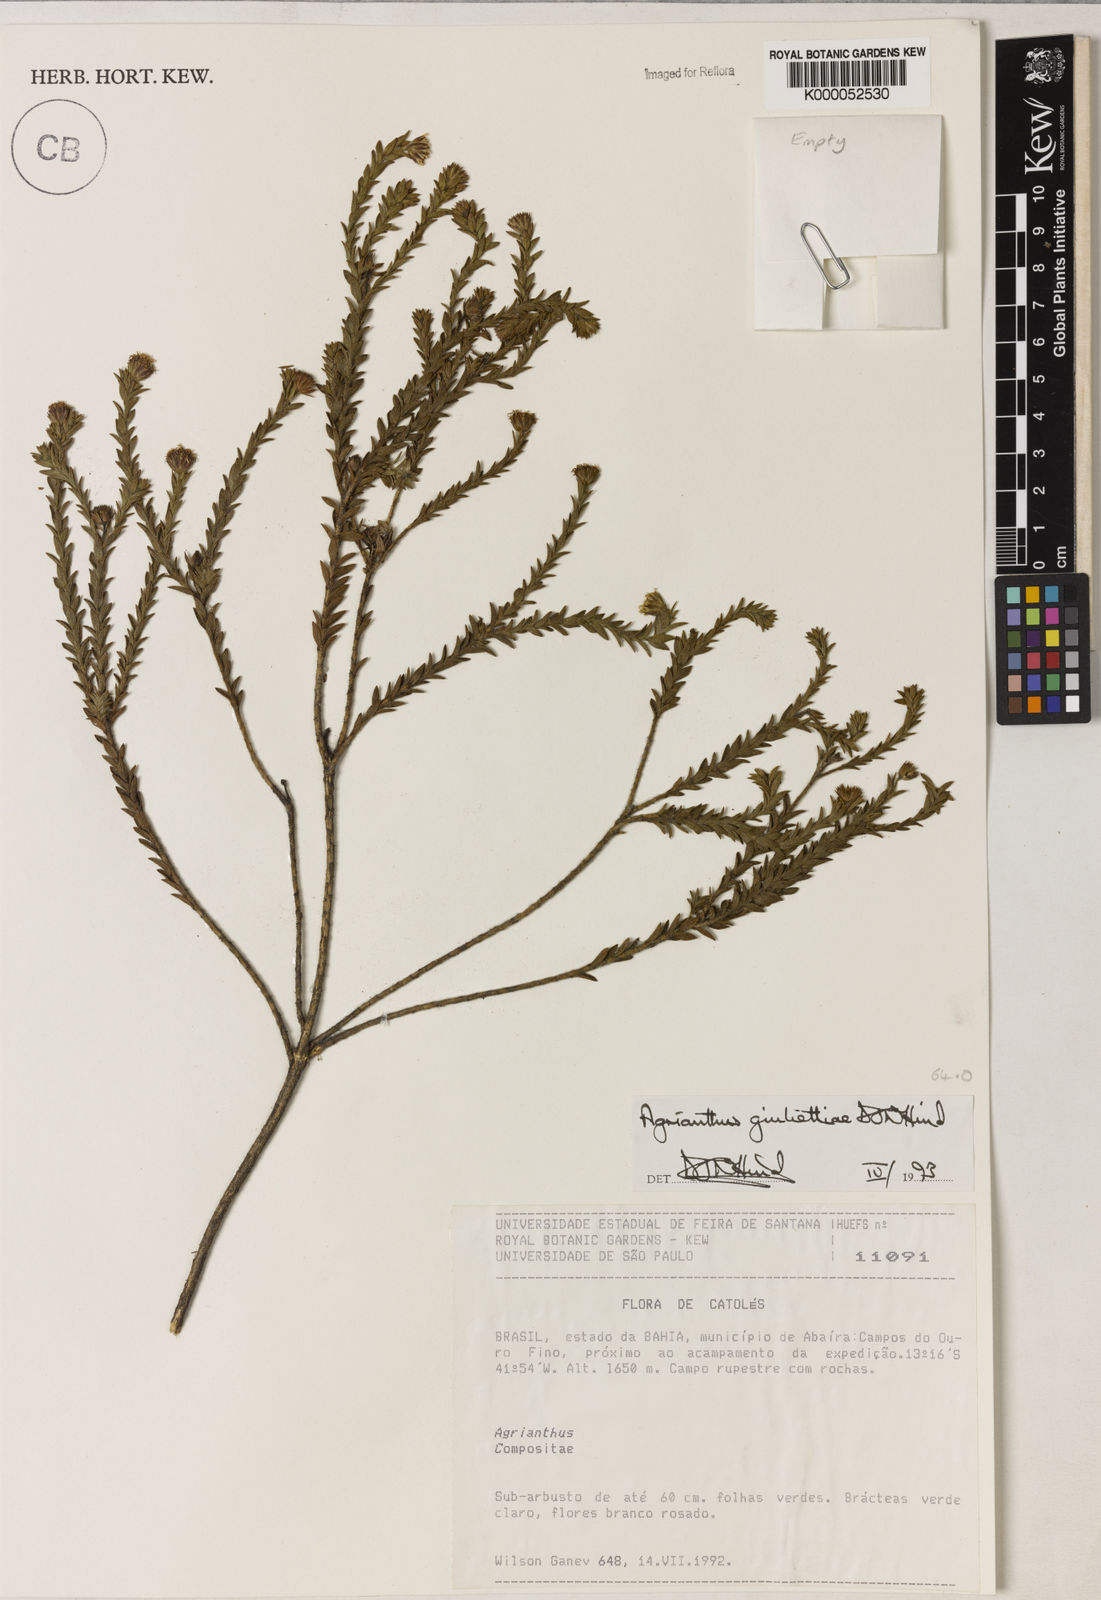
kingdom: Plantae
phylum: Tracheophyta
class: Magnoliopsida
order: Asterales
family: Asteraceae
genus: Agrianthus
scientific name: Agrianthus giuliettiae
